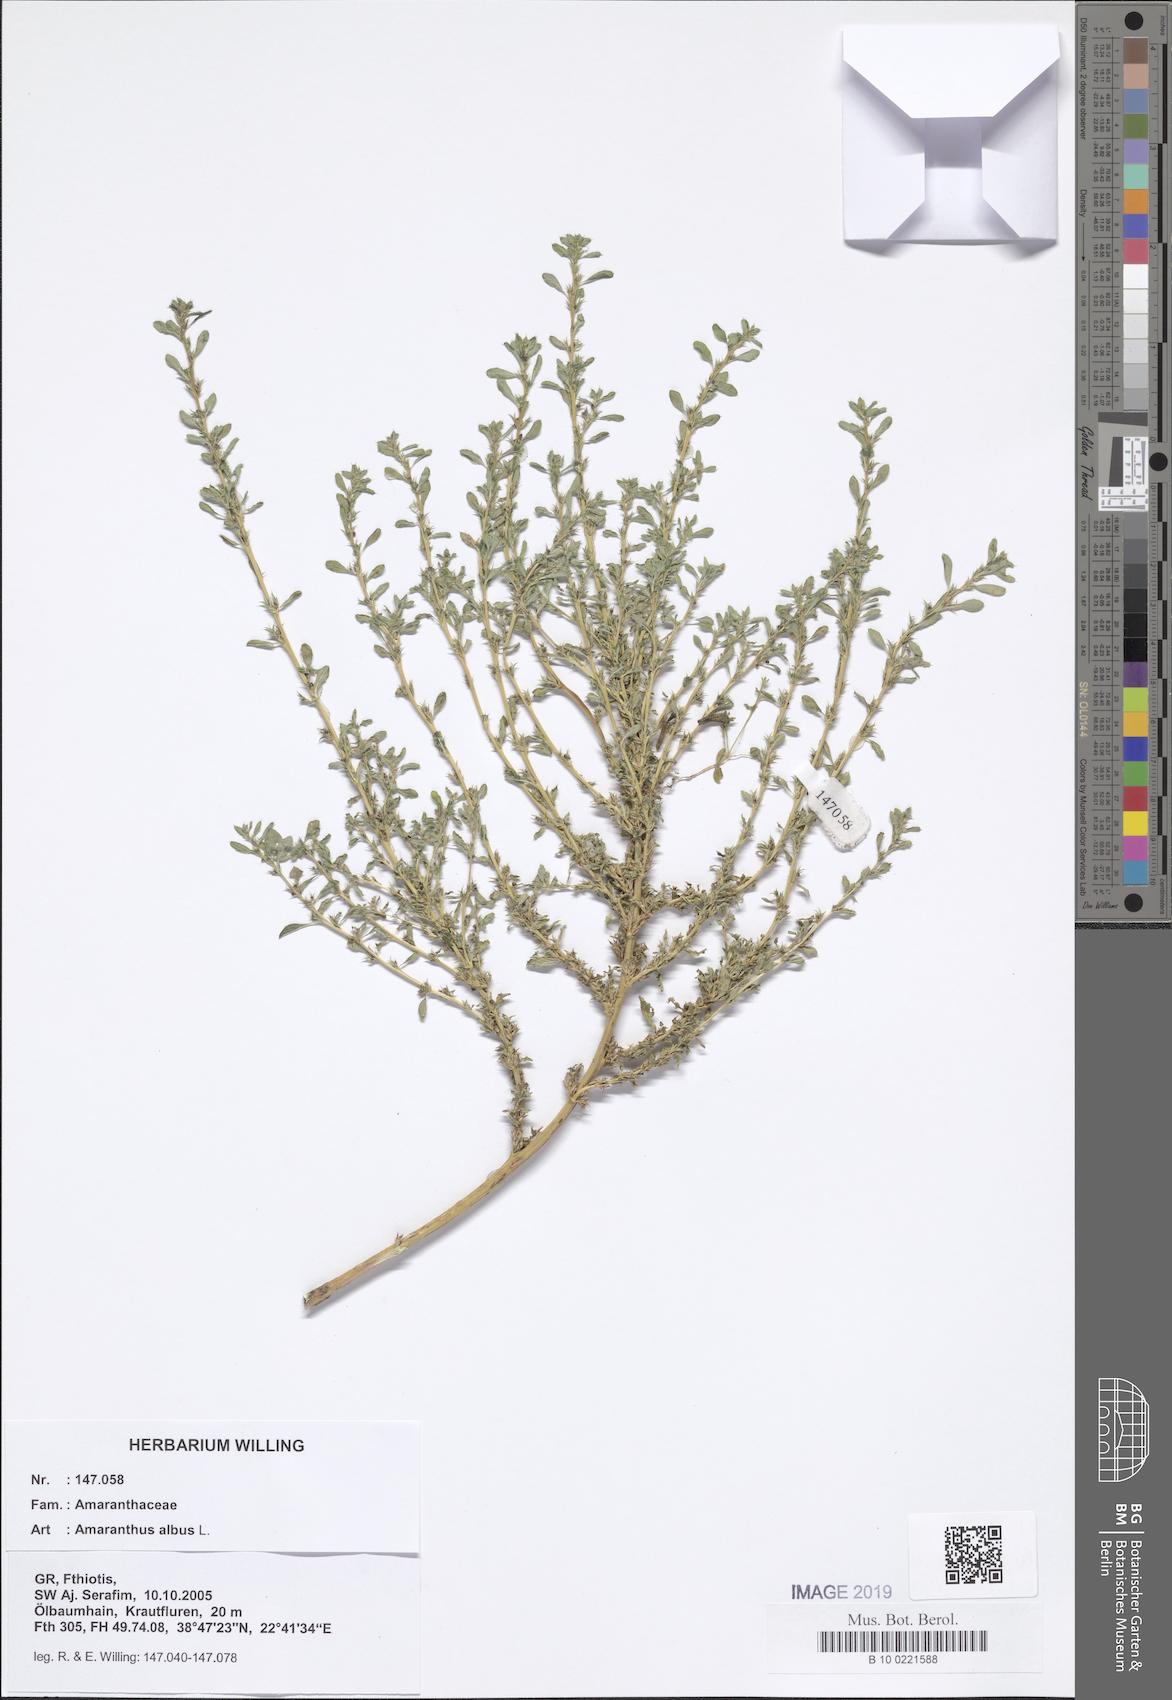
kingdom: Plantae
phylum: Tracheophyta
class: Magnoliopsida
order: Caryophyllales
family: Amaranthaceae
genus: Amaranthus
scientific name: Amaranthus albus
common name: White pigweed
